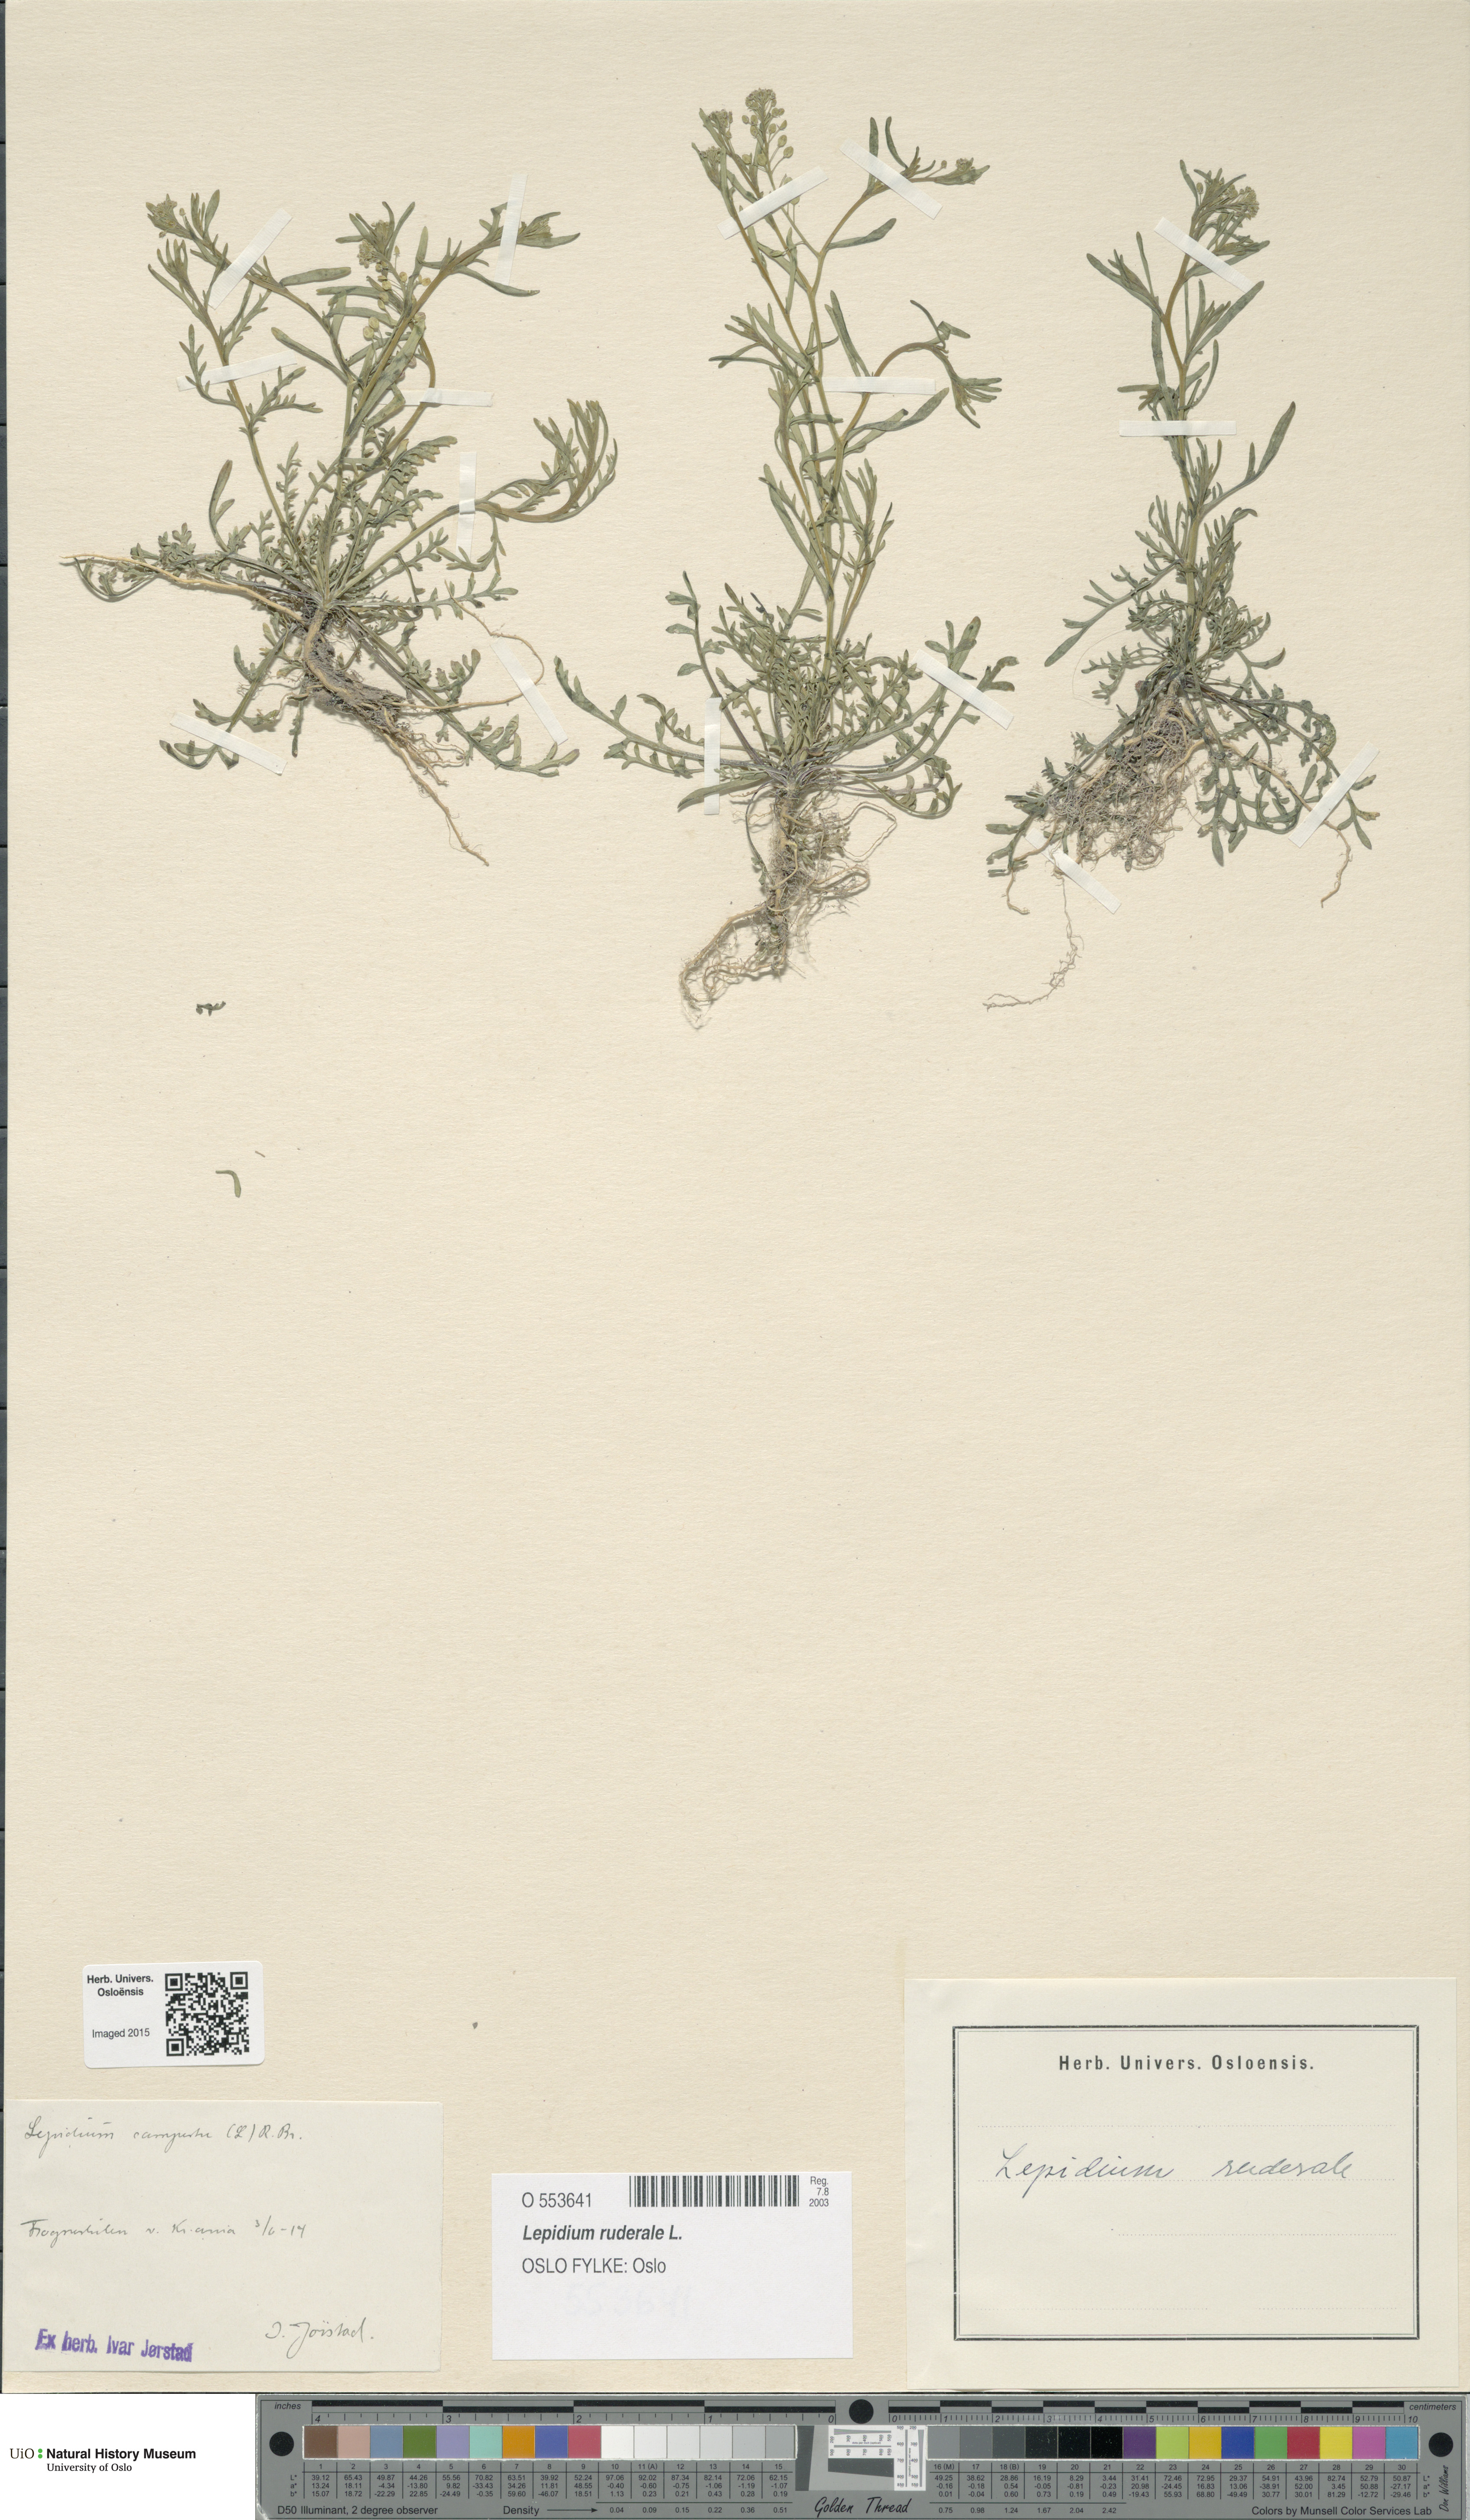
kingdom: Plantae
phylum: Tracheophyta
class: Magnoliopsida
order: Brassicales
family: Brassicaceae
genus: Lepidium
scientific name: Lepidium ruderale
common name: Narrow-leaved pepperwort
